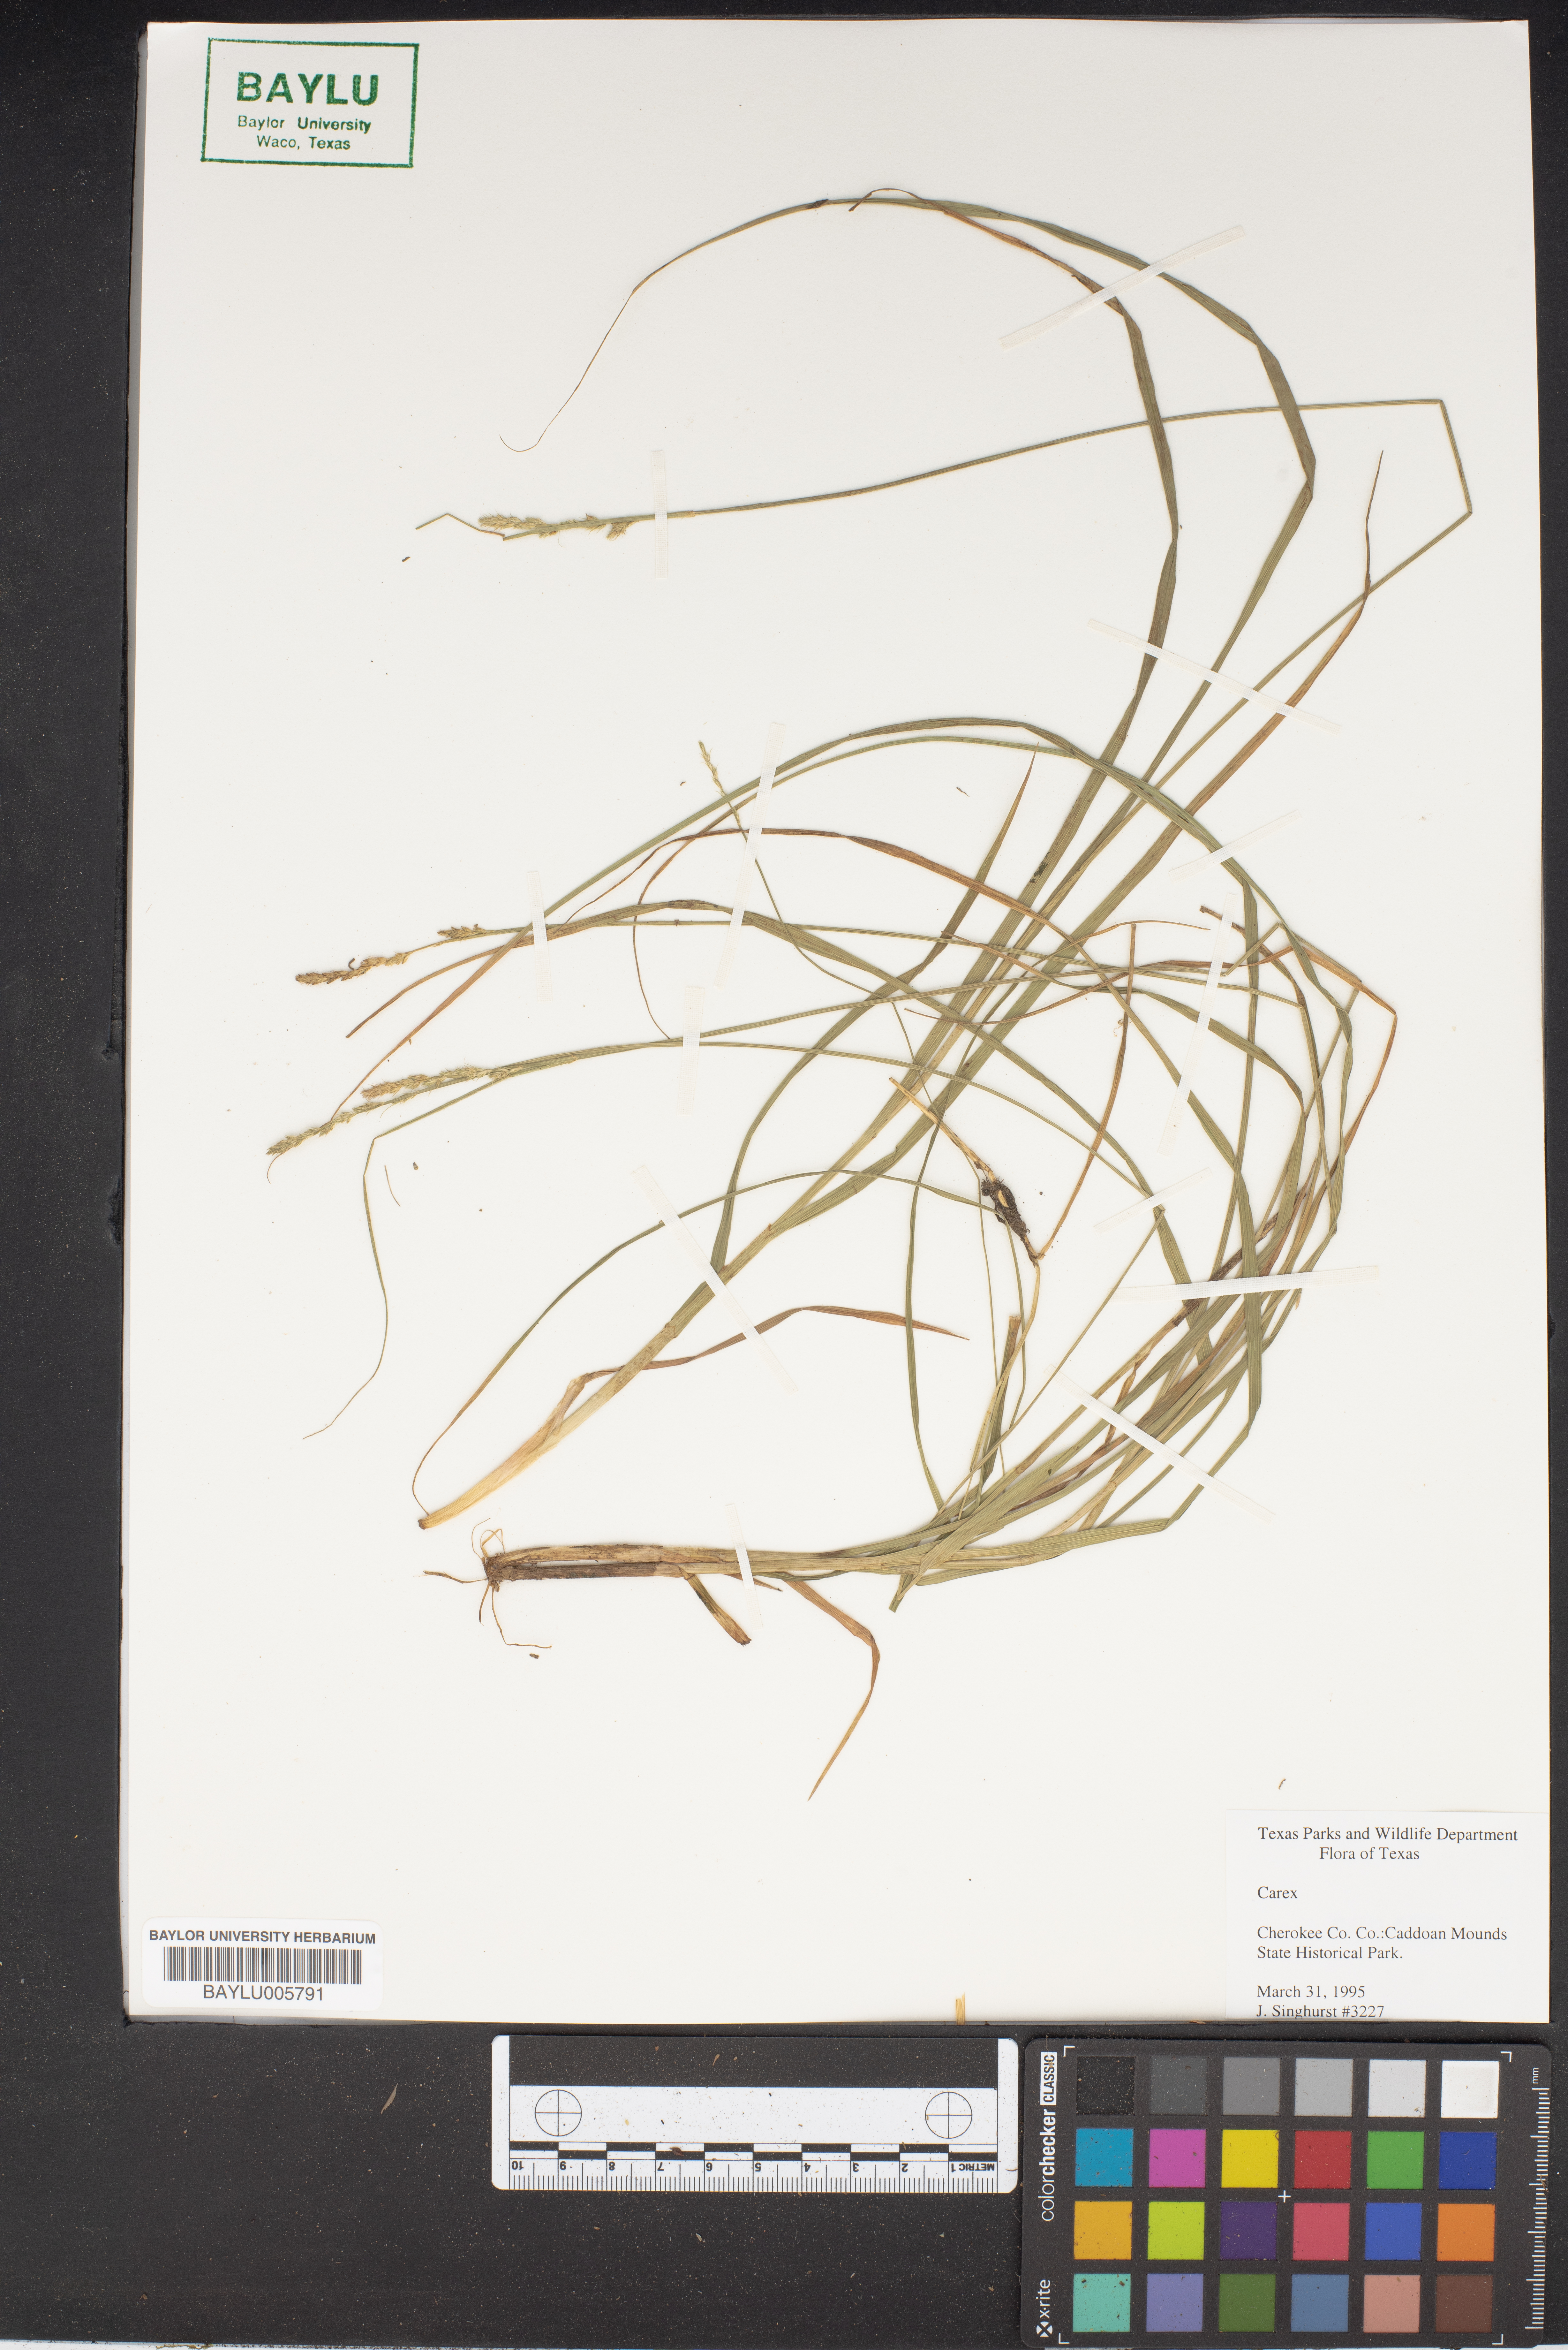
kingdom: Plantae
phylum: Tracheophyta
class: Liliopsida
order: Poales
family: Cyperaceae
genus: Carex
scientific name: Carex
